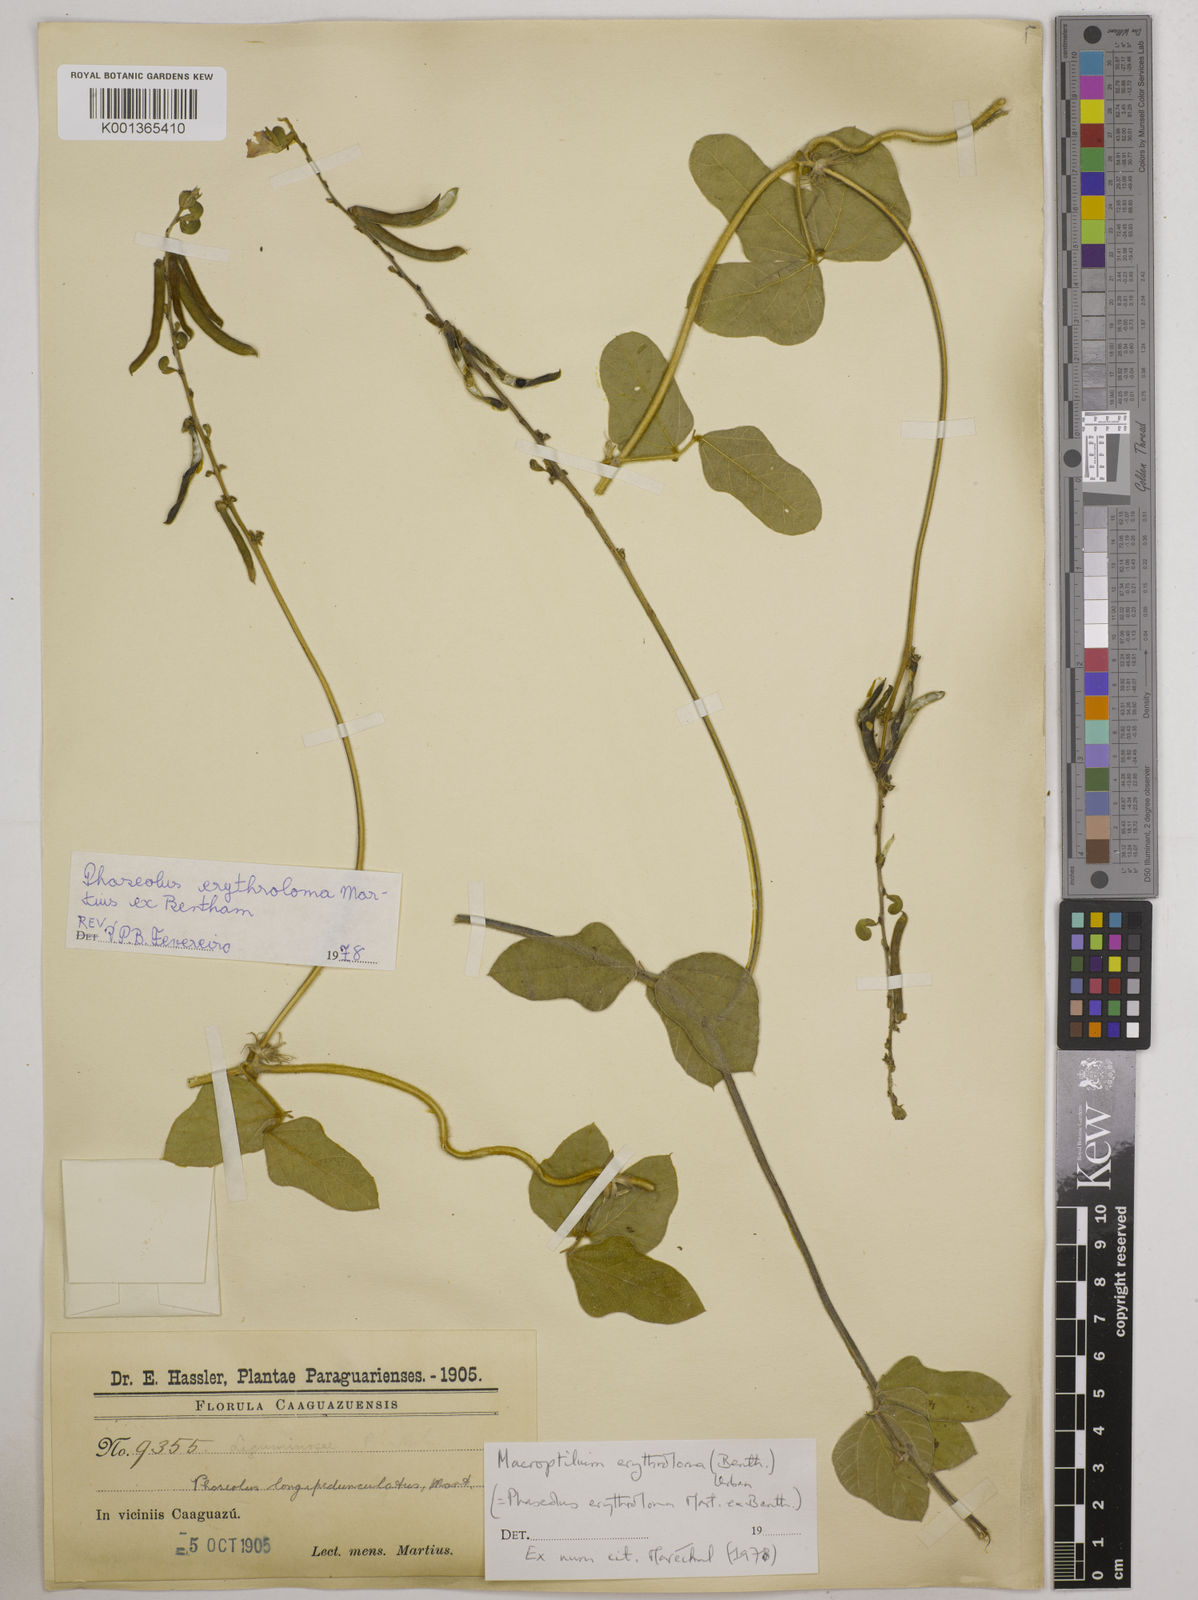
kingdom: Plantae
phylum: Tracheophyta
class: Magnoliopsida
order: Fabales
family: Fabaceae
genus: Macroptilium
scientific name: Macroptilium erythroloma
